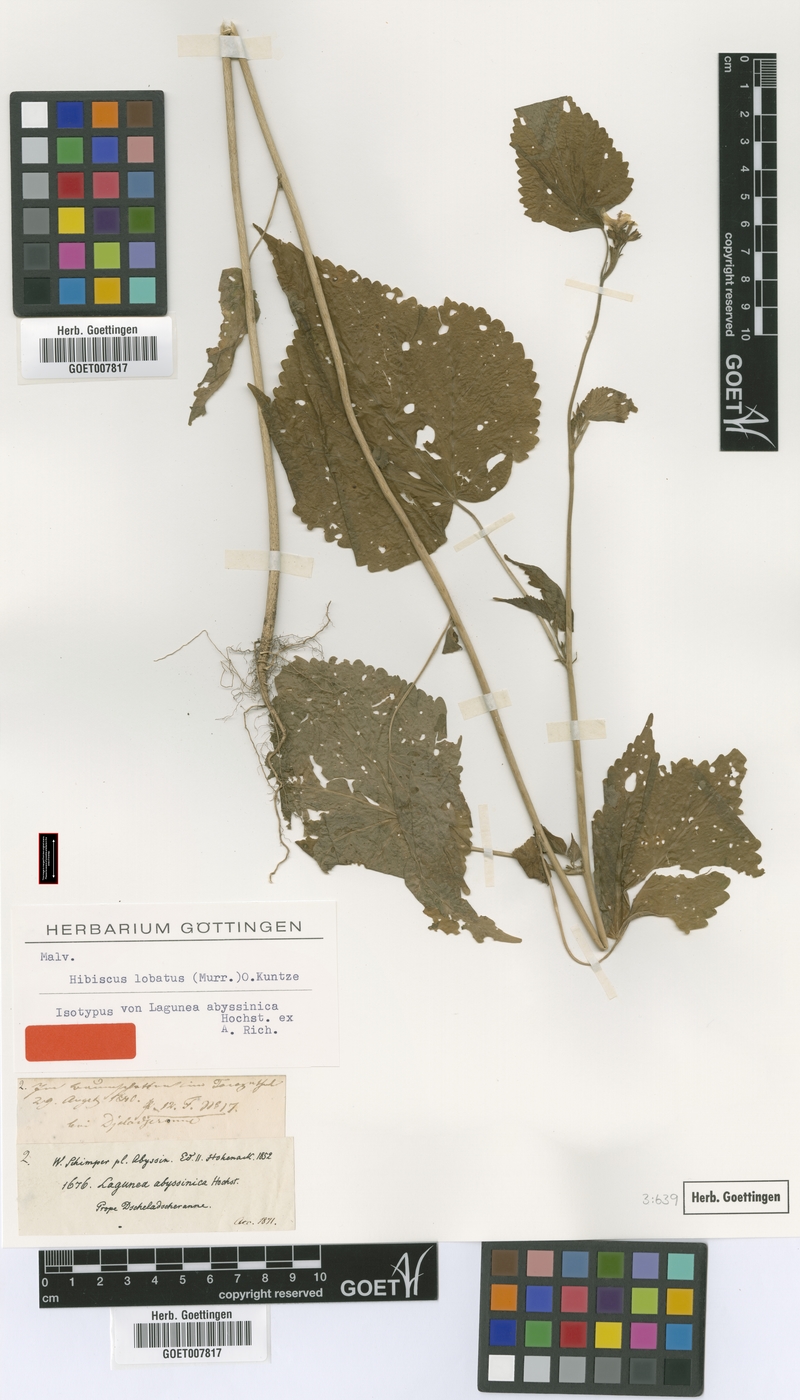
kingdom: Plantae
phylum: Tracheophyta
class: Magnoliopsida
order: Malvales
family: Malvaceae
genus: Hibiscus
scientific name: Hibiscus lobatus
